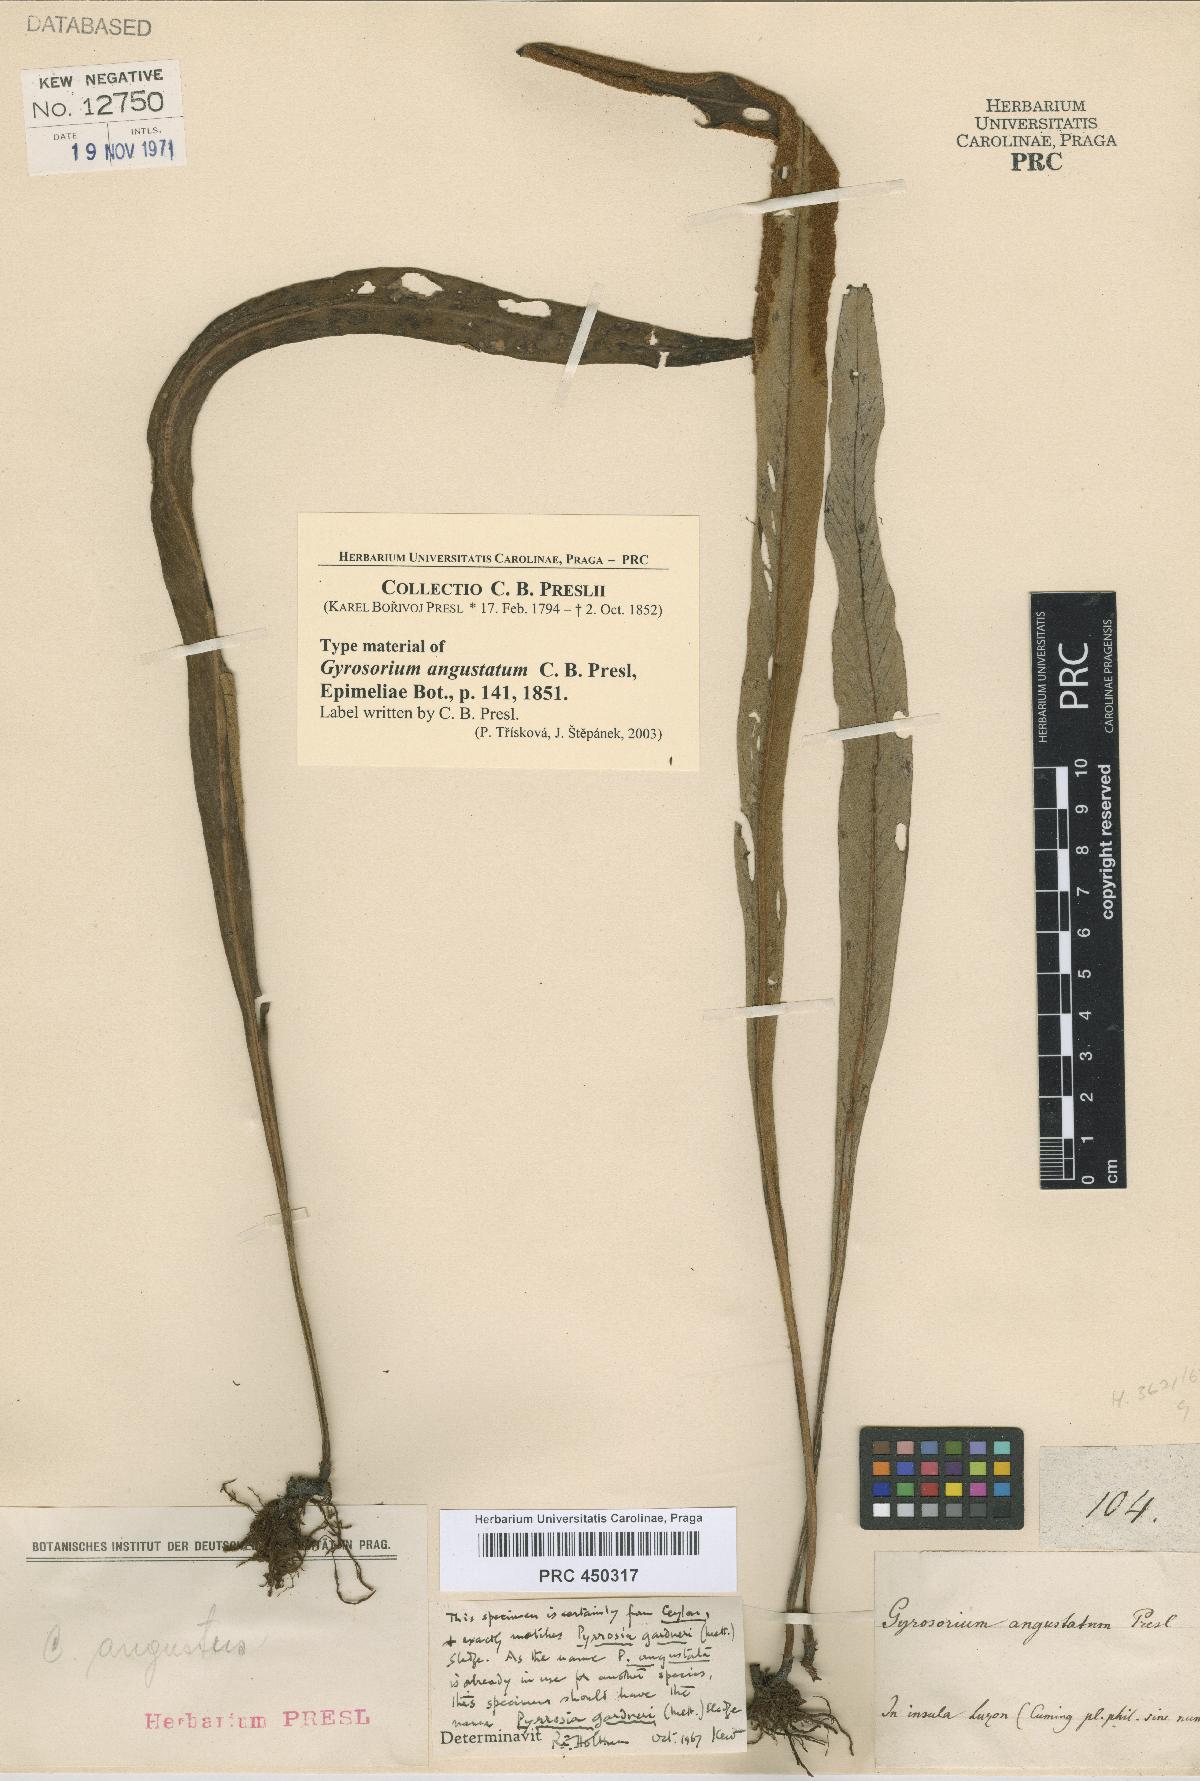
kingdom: Plantae
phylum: Tracheophyta
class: Polypodiopsida
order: Polypodiales
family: Polypodiaceae
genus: Pyrrosia
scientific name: Pyrrosia Gyrosorium angustatum
